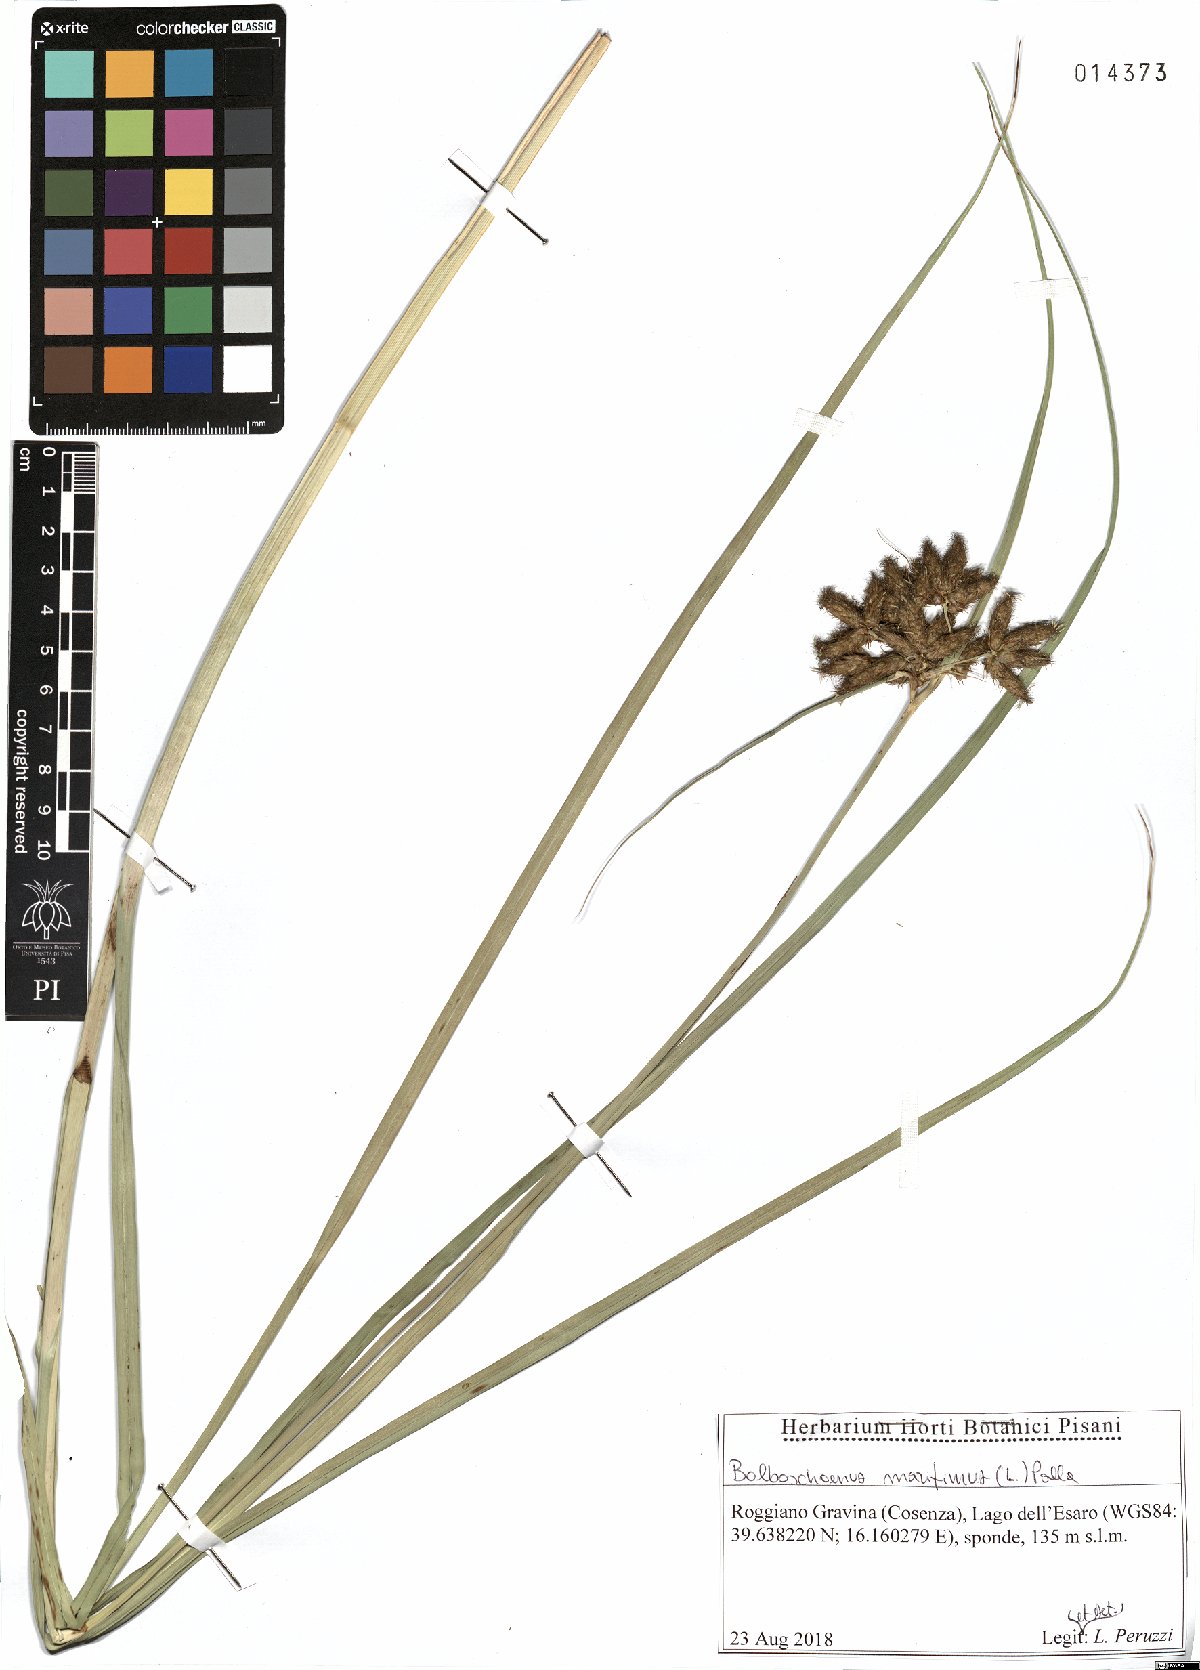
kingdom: Plantae
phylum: Tracheophyta
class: Liliopsida
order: Poales
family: Cyperaceae
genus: Bolboschoenus
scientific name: Bolboschoenus maritimus
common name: Sea club-rush
